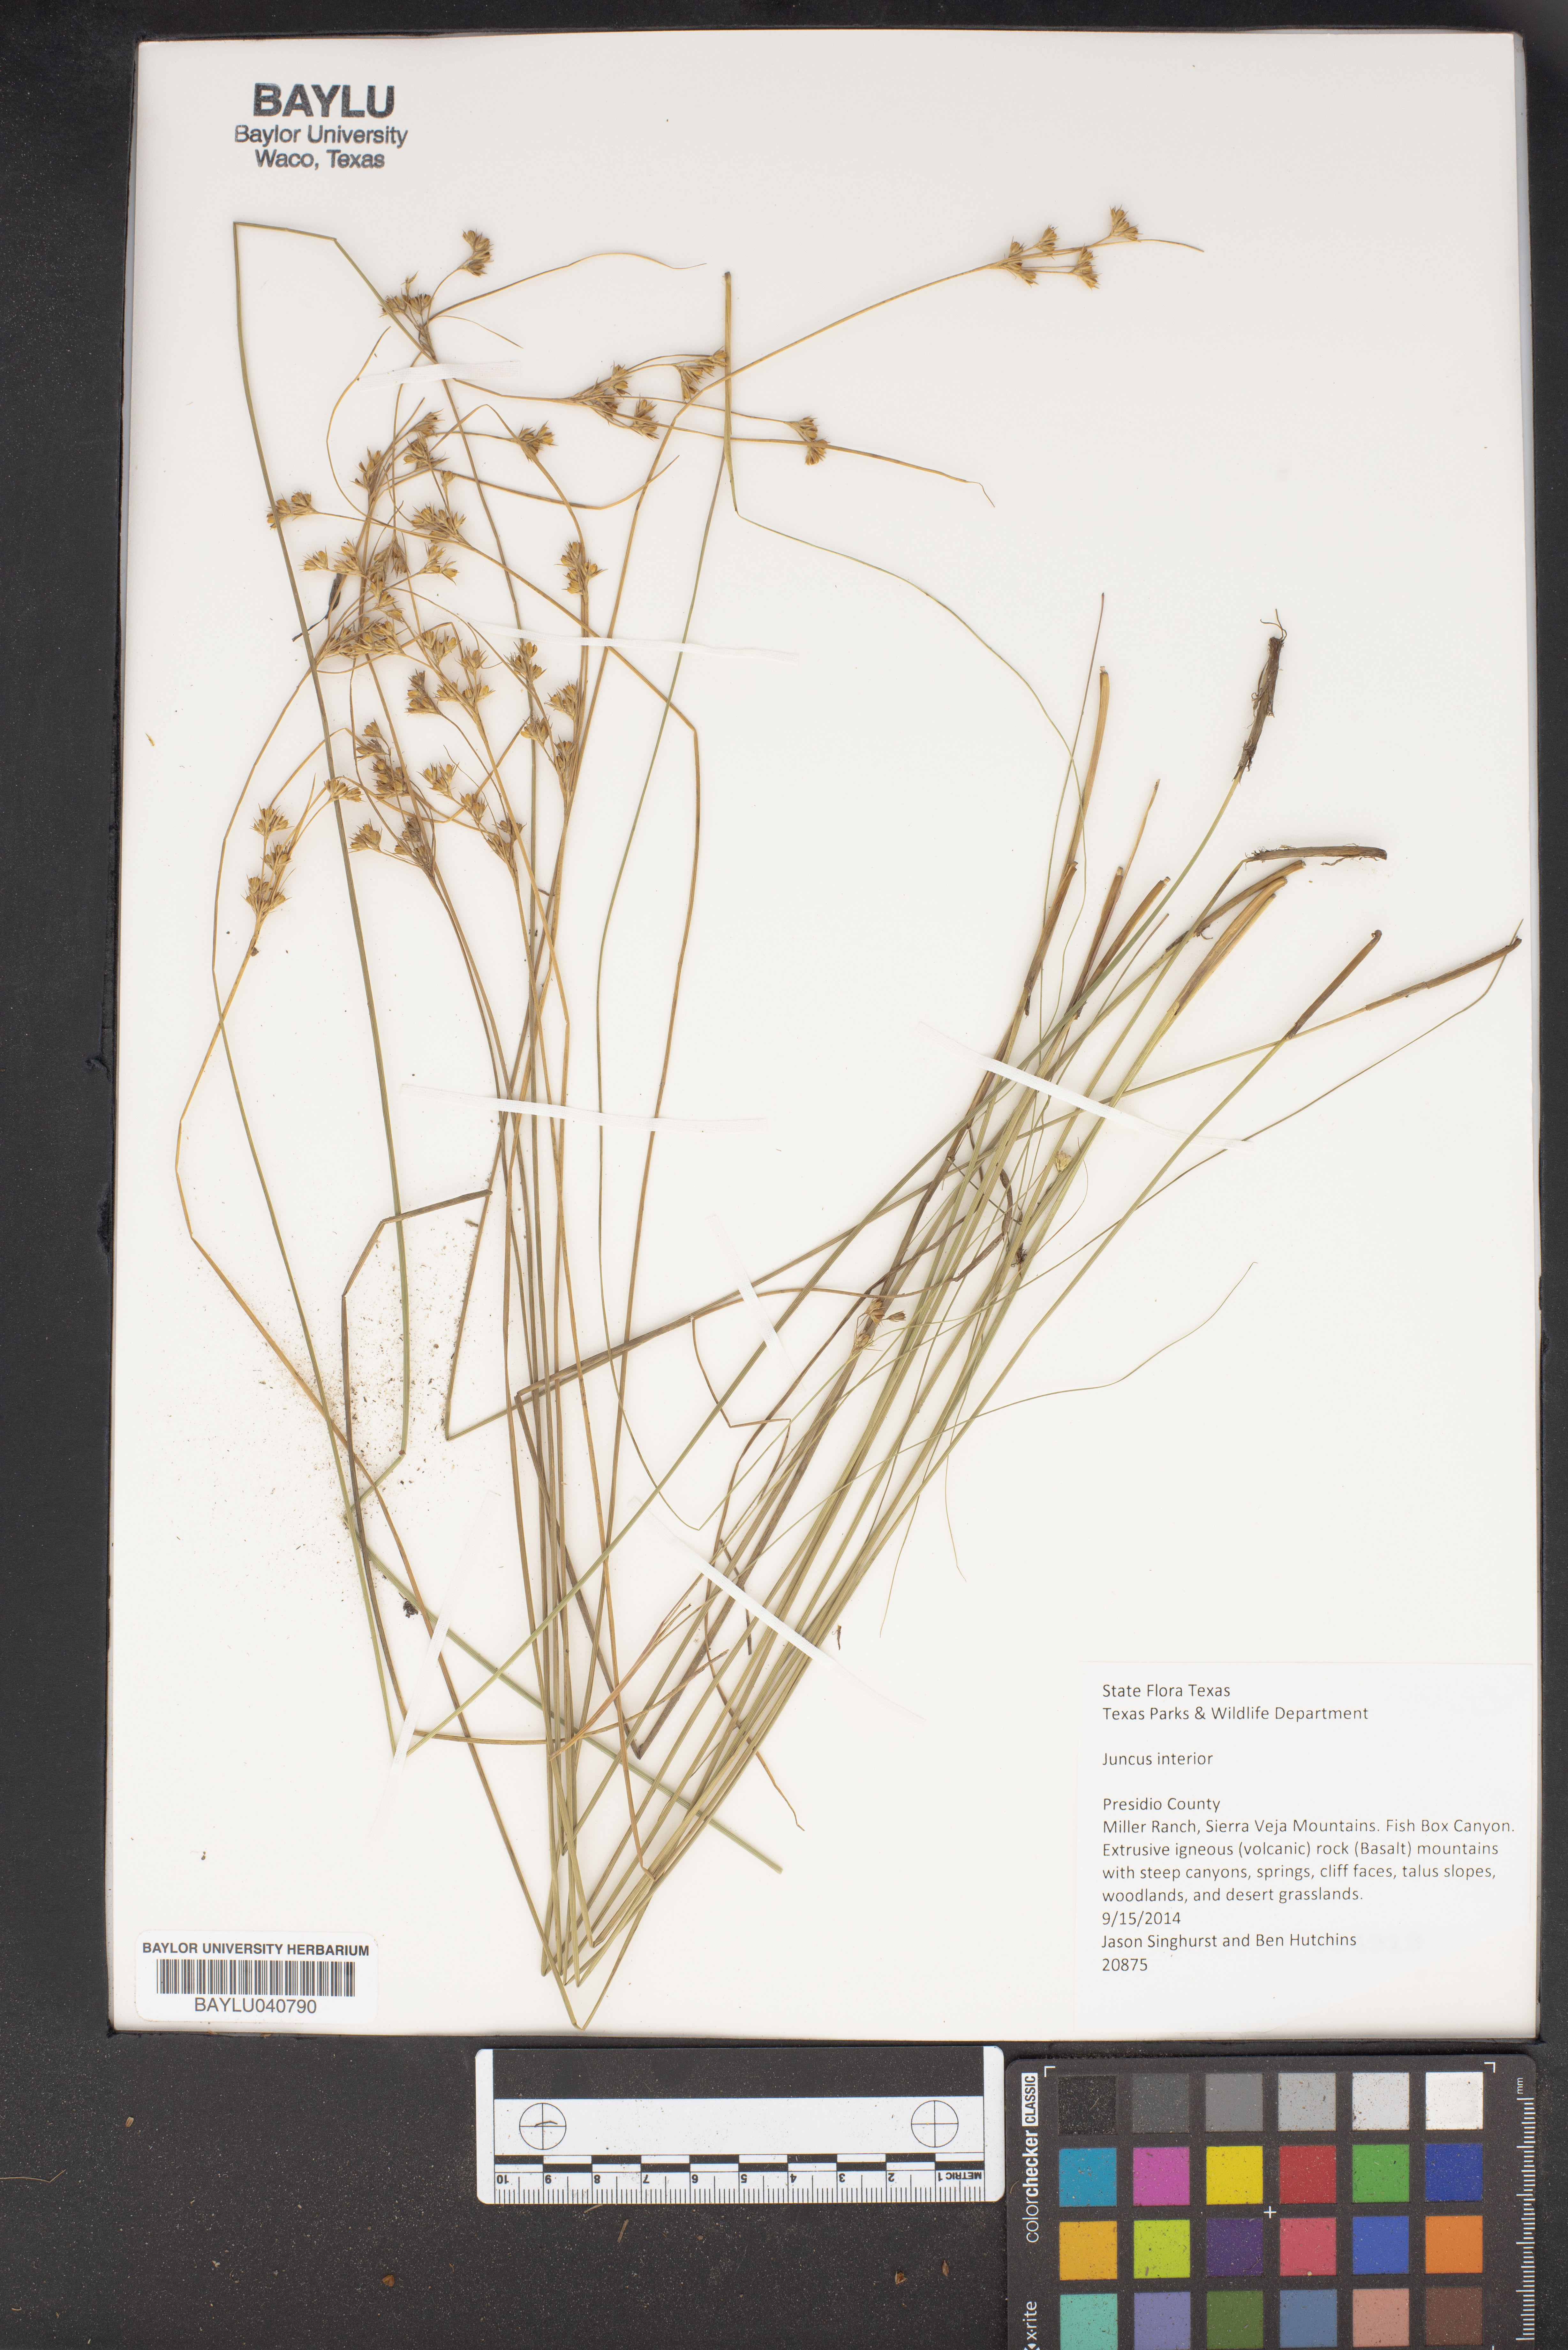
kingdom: Plantae
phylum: Tracheophyta
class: Liliopsida
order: Poales
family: Juncaceae
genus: Juncus
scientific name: Juncus interior
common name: Interior rush
